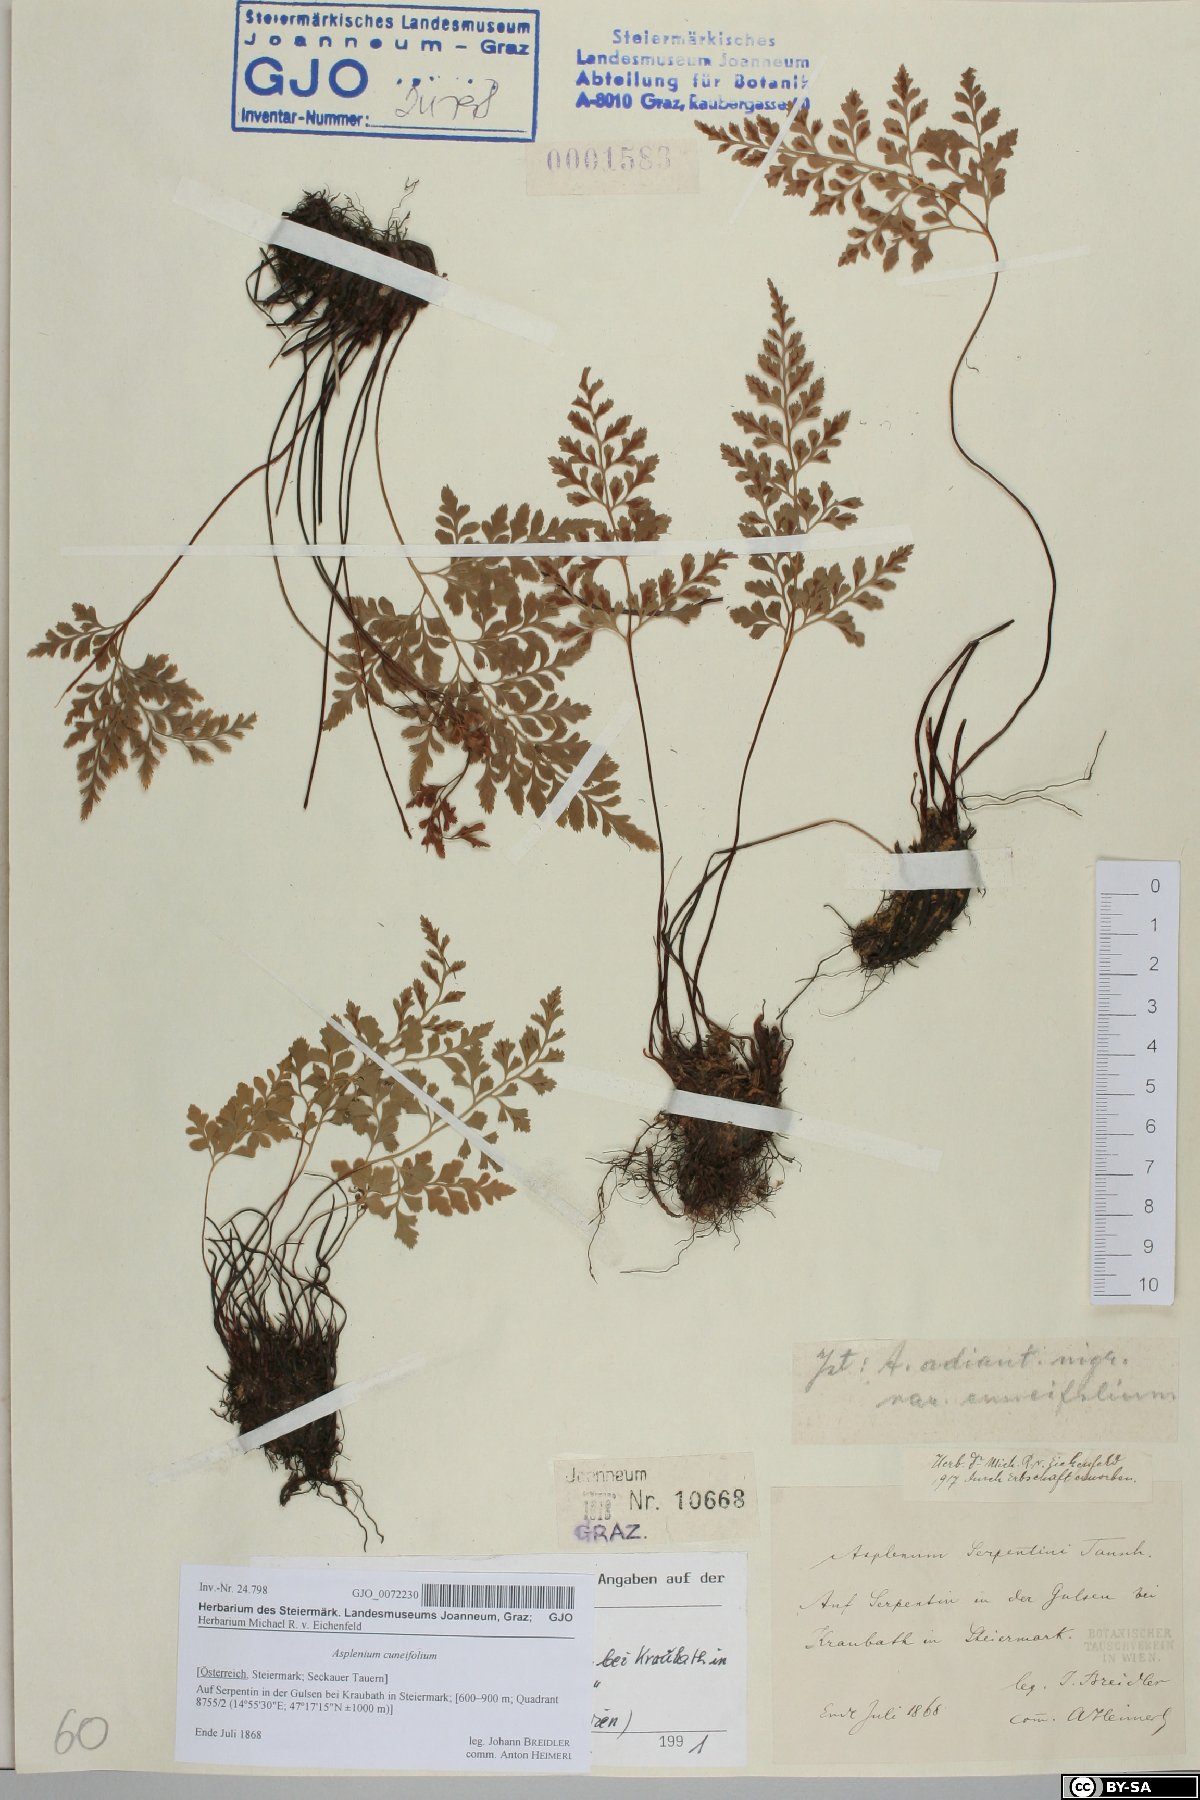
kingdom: Plantae
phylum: Tracheophyta
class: Polypodiopsida
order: Polypodiales
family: Aspleniaceae
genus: Asplenium
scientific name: Asplenium cuneifolium
